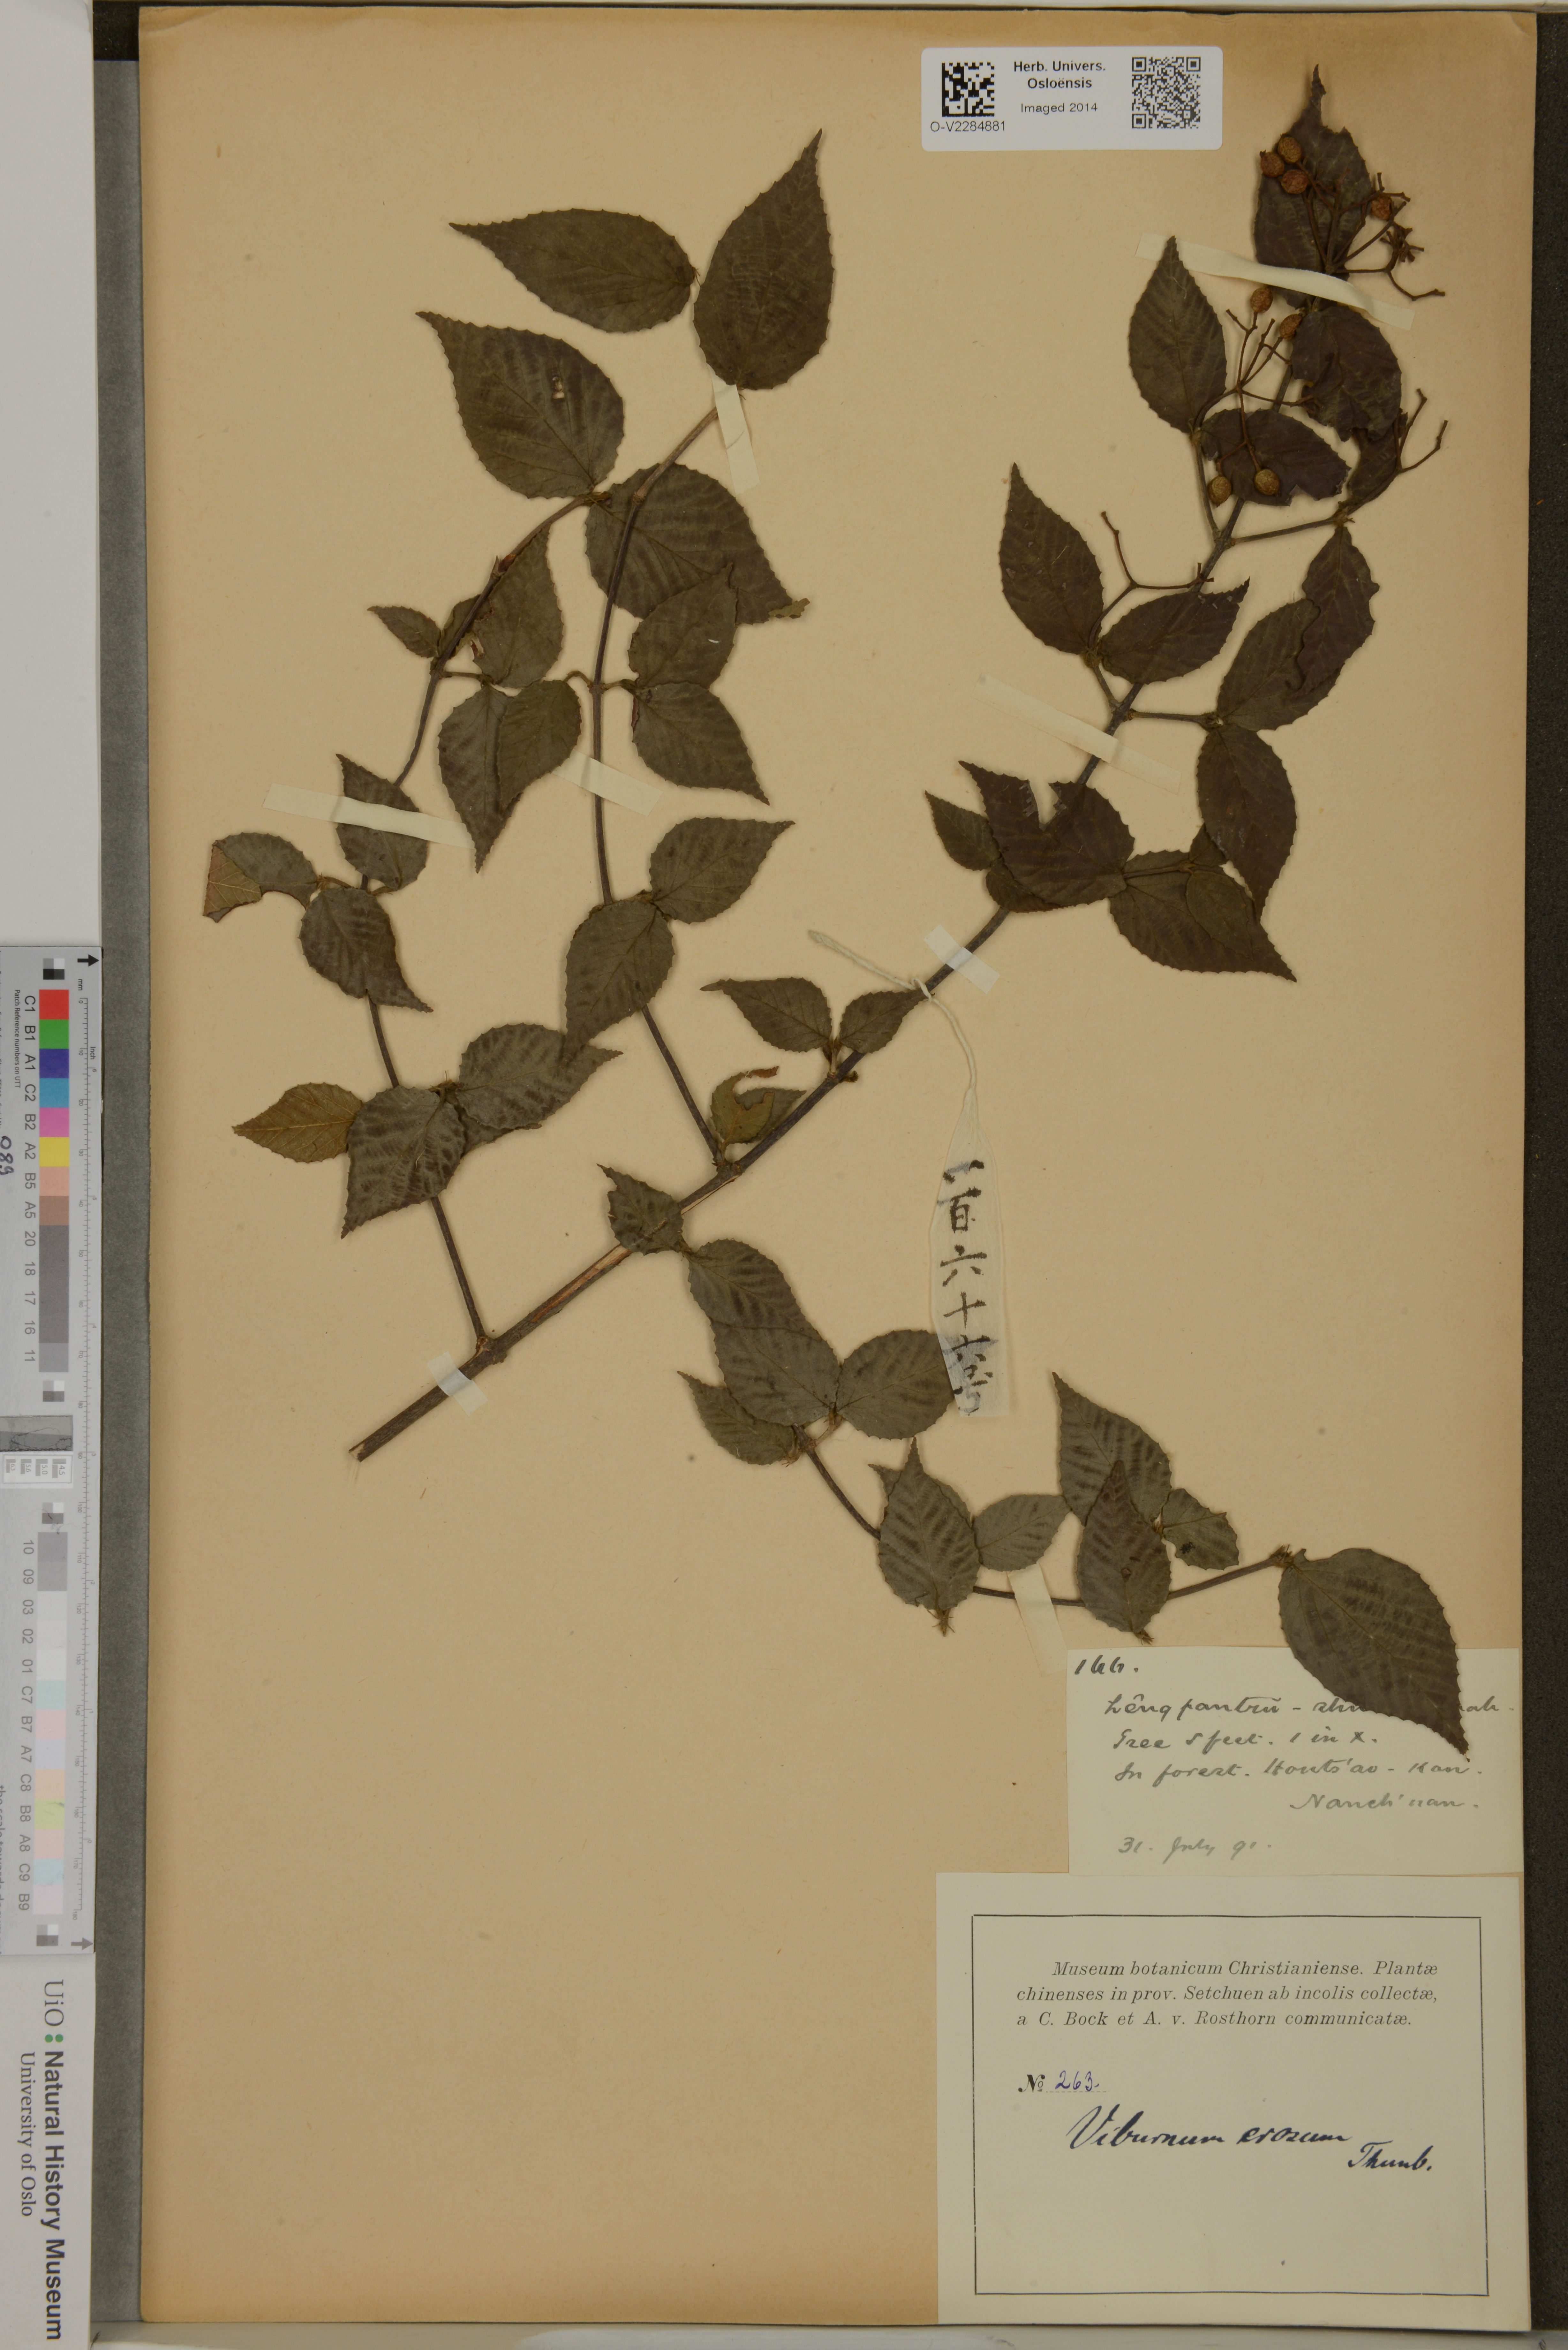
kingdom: Plantae
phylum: Tracheophyta
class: Magnoliopsida
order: Dipsacales
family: Viburnaceae
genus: Viburnum
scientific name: Viburnum erosum
